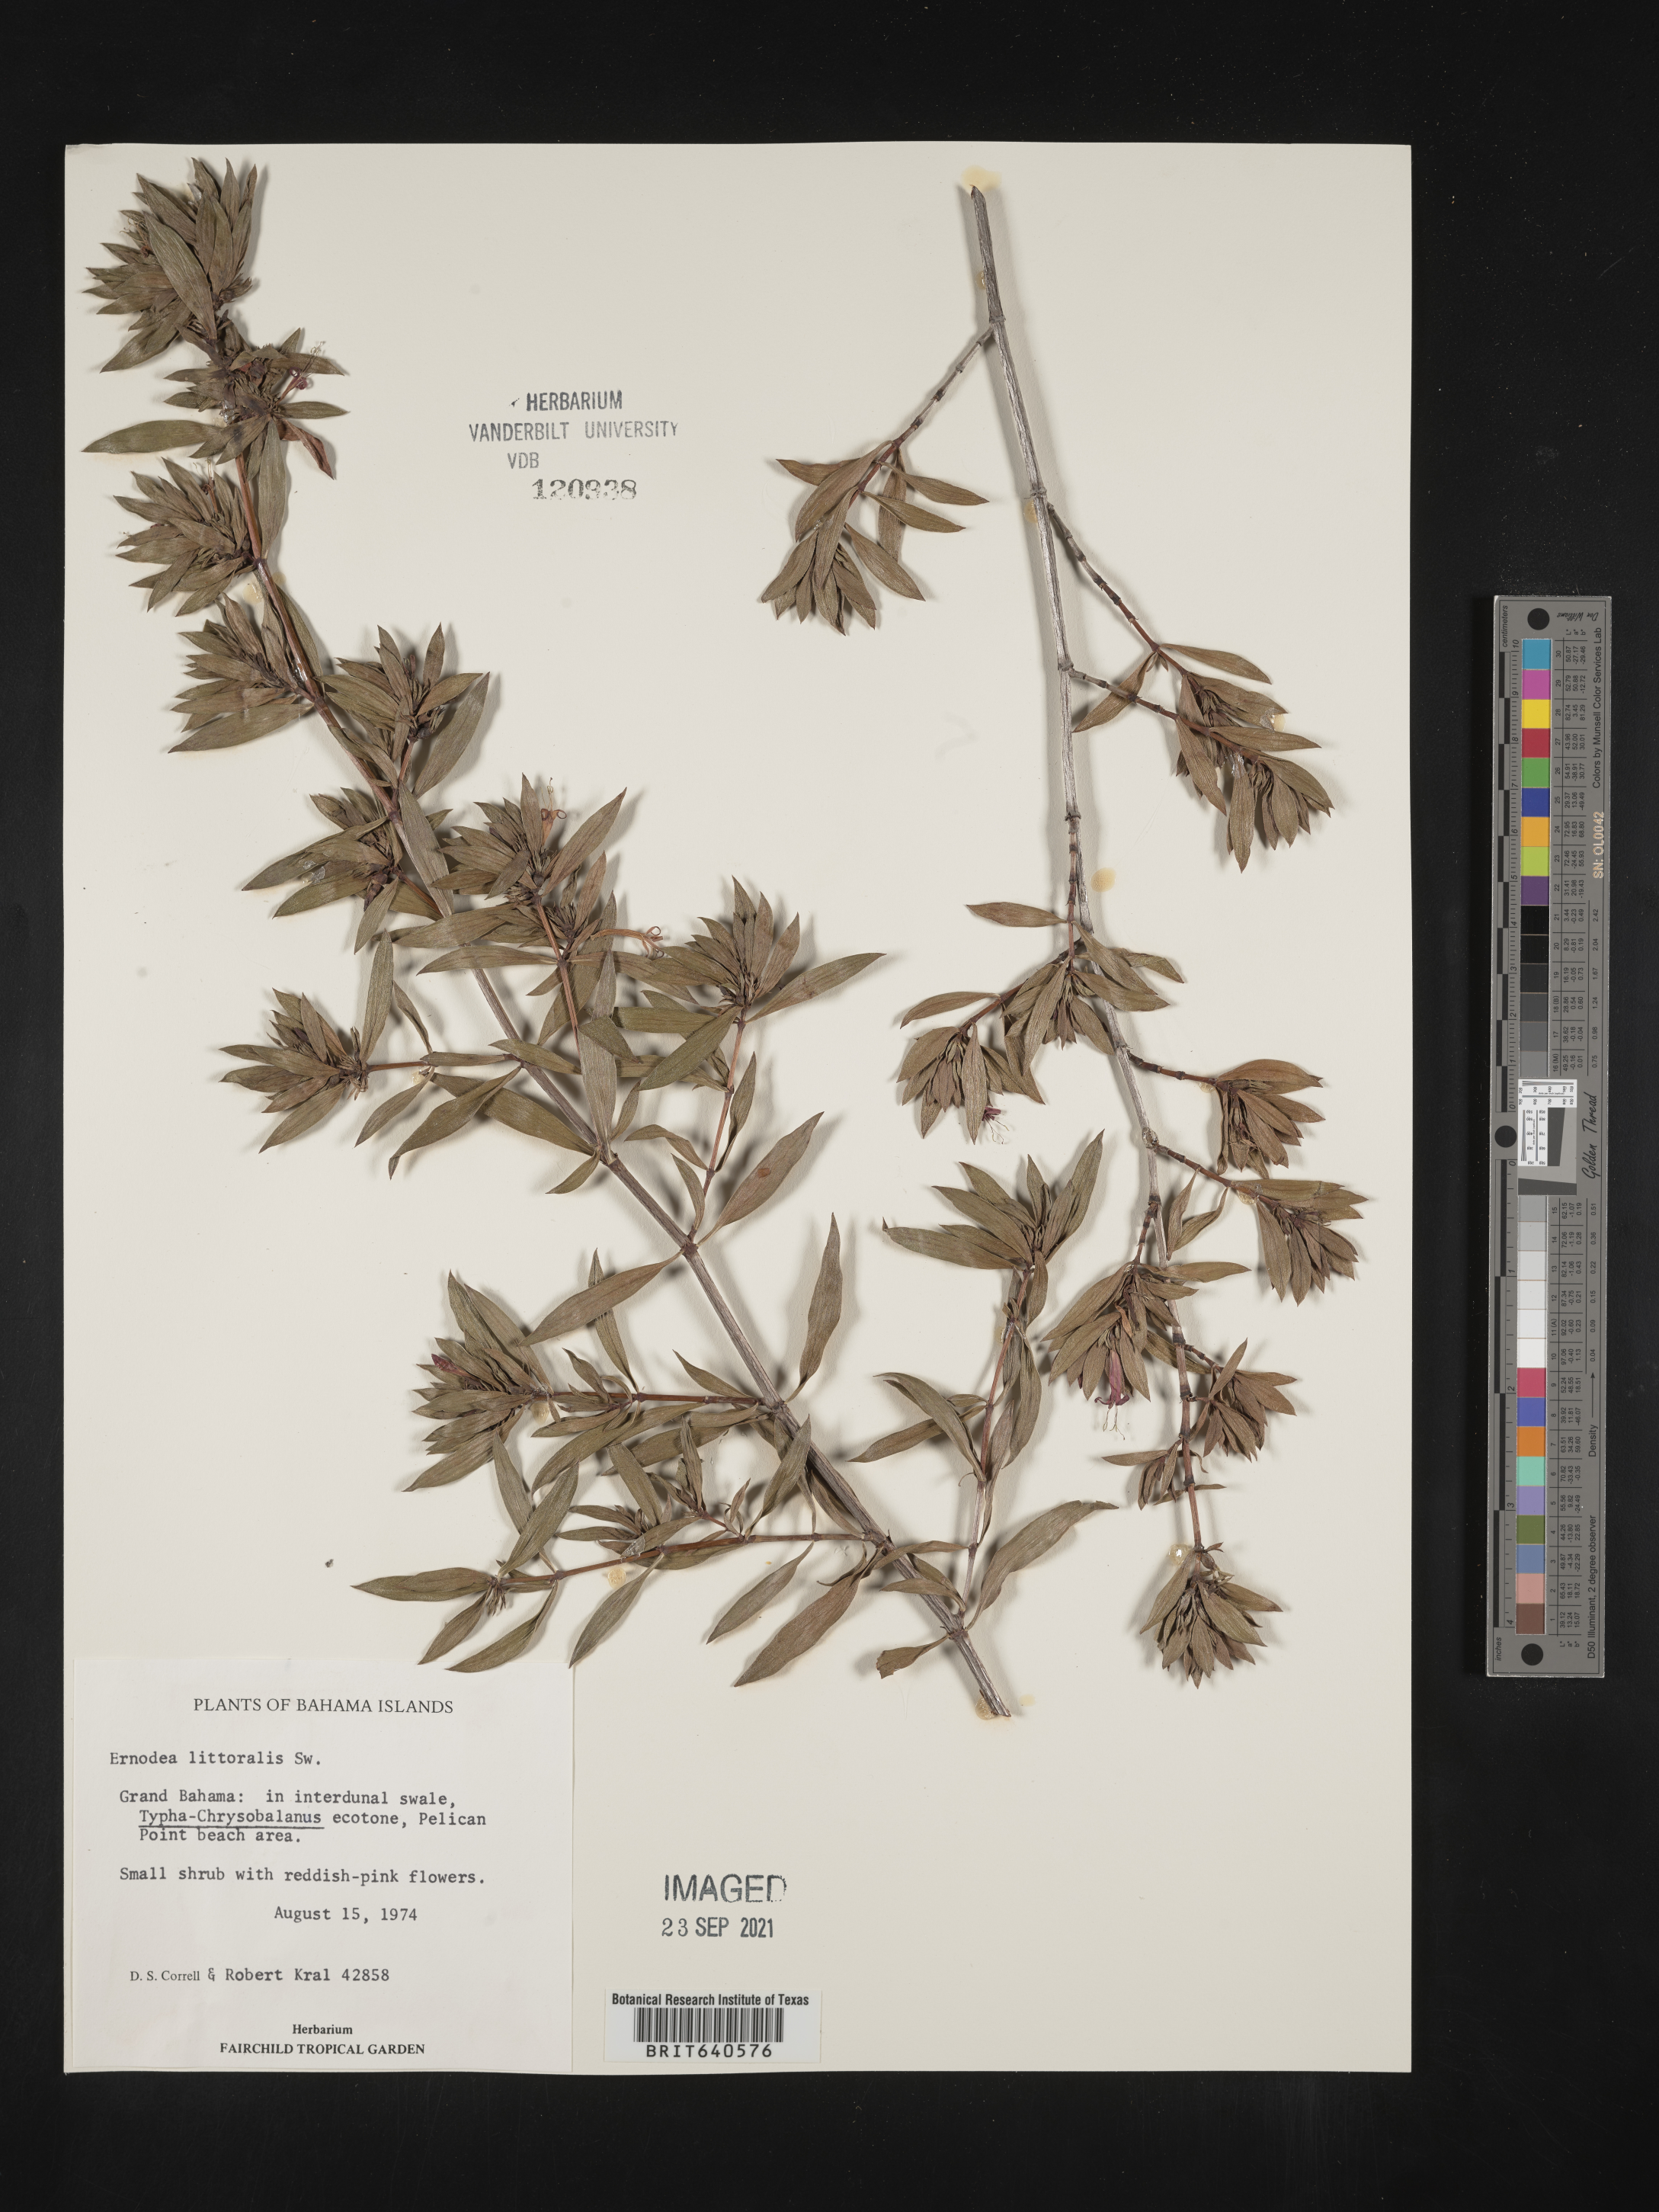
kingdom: Plantae
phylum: Tracheophyta
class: Magnoliopsida
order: Gentianales
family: Rubiaceae
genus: Ernodea
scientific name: Ernodea
